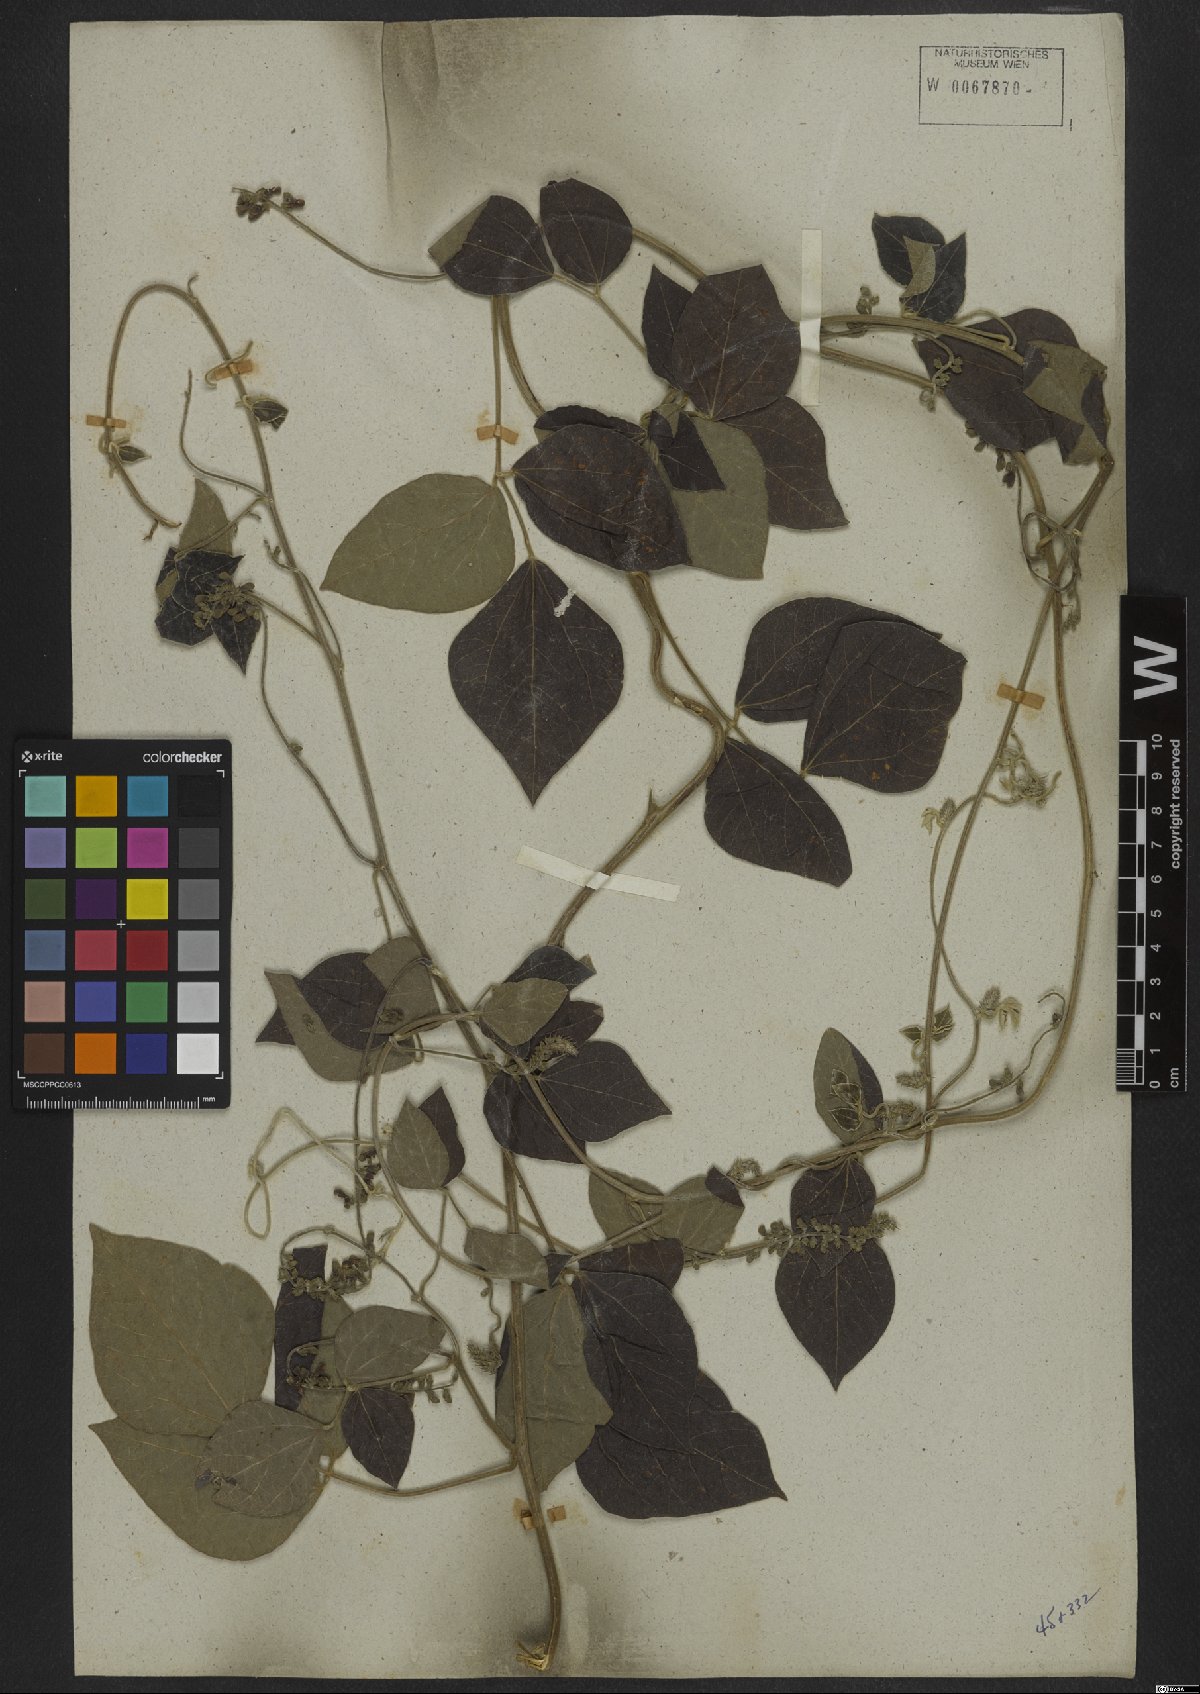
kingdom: Plantae
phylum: Tracheophyta
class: Magnoliopsida
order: Fabales
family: Fabaceae
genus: Rhynchosia
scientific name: Rhynchosia phaseoloides
